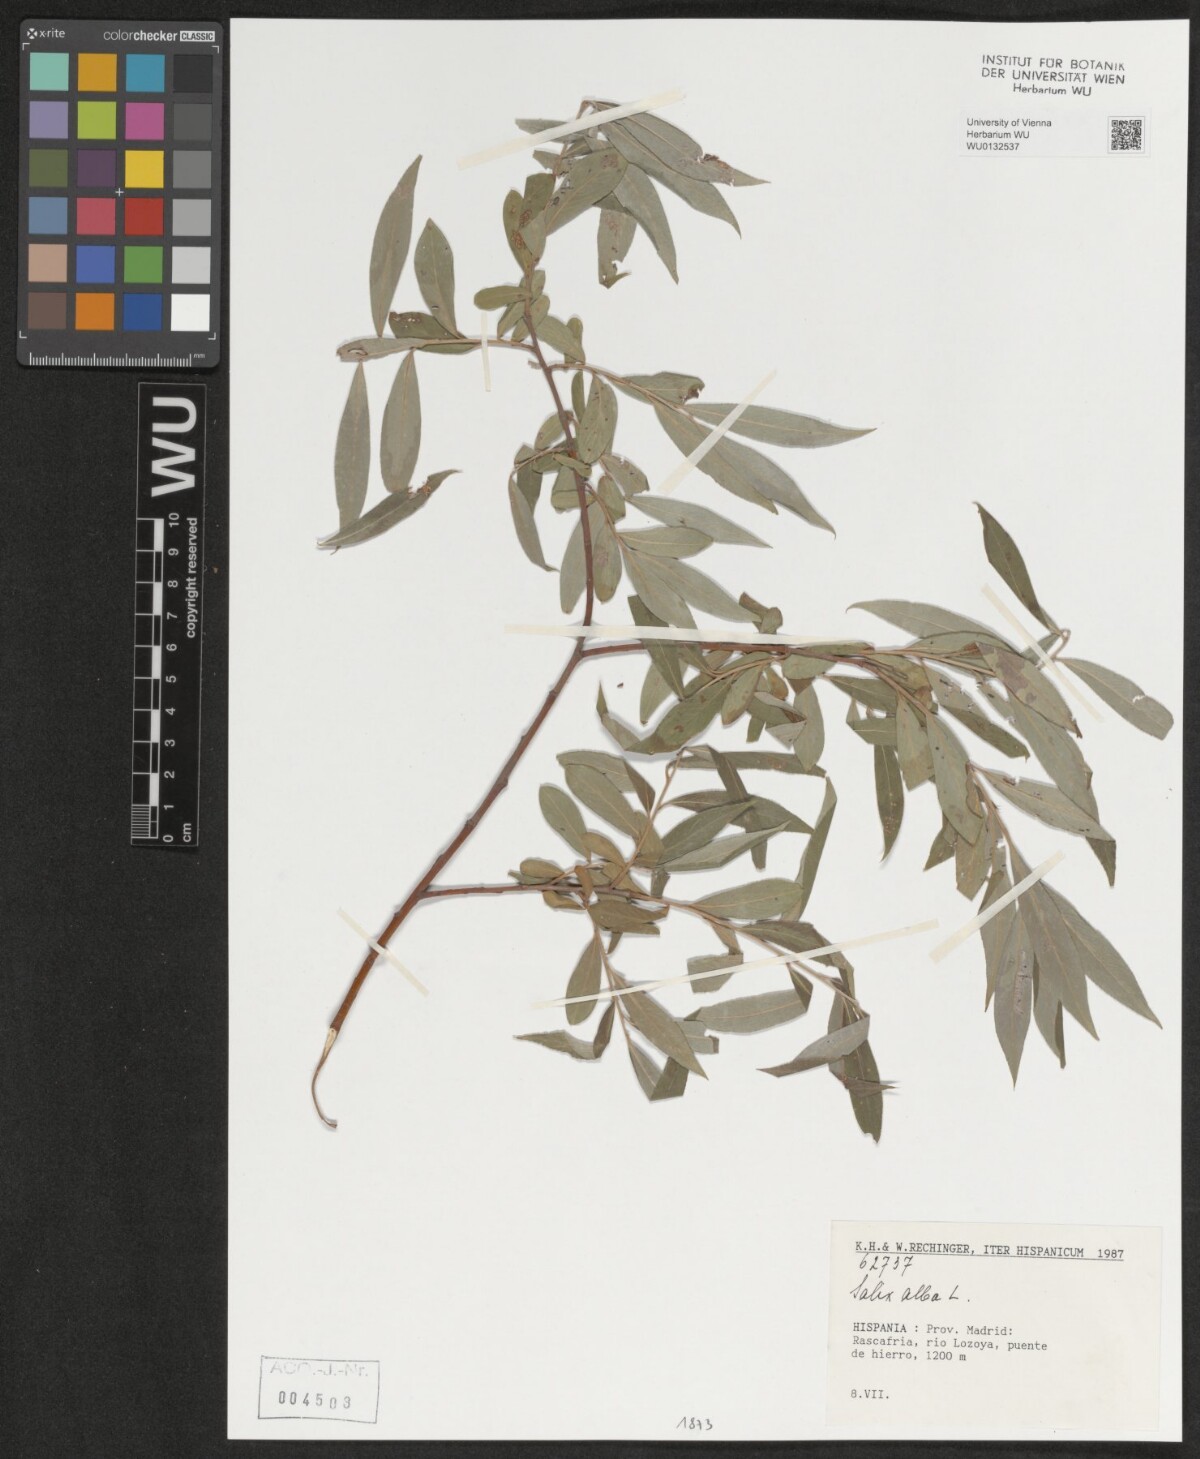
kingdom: Plantae
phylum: Tracheophyta
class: Magnoliopsida
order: Malpighiales
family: Salicaceae
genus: Salix
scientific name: Salix alba
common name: White willow
